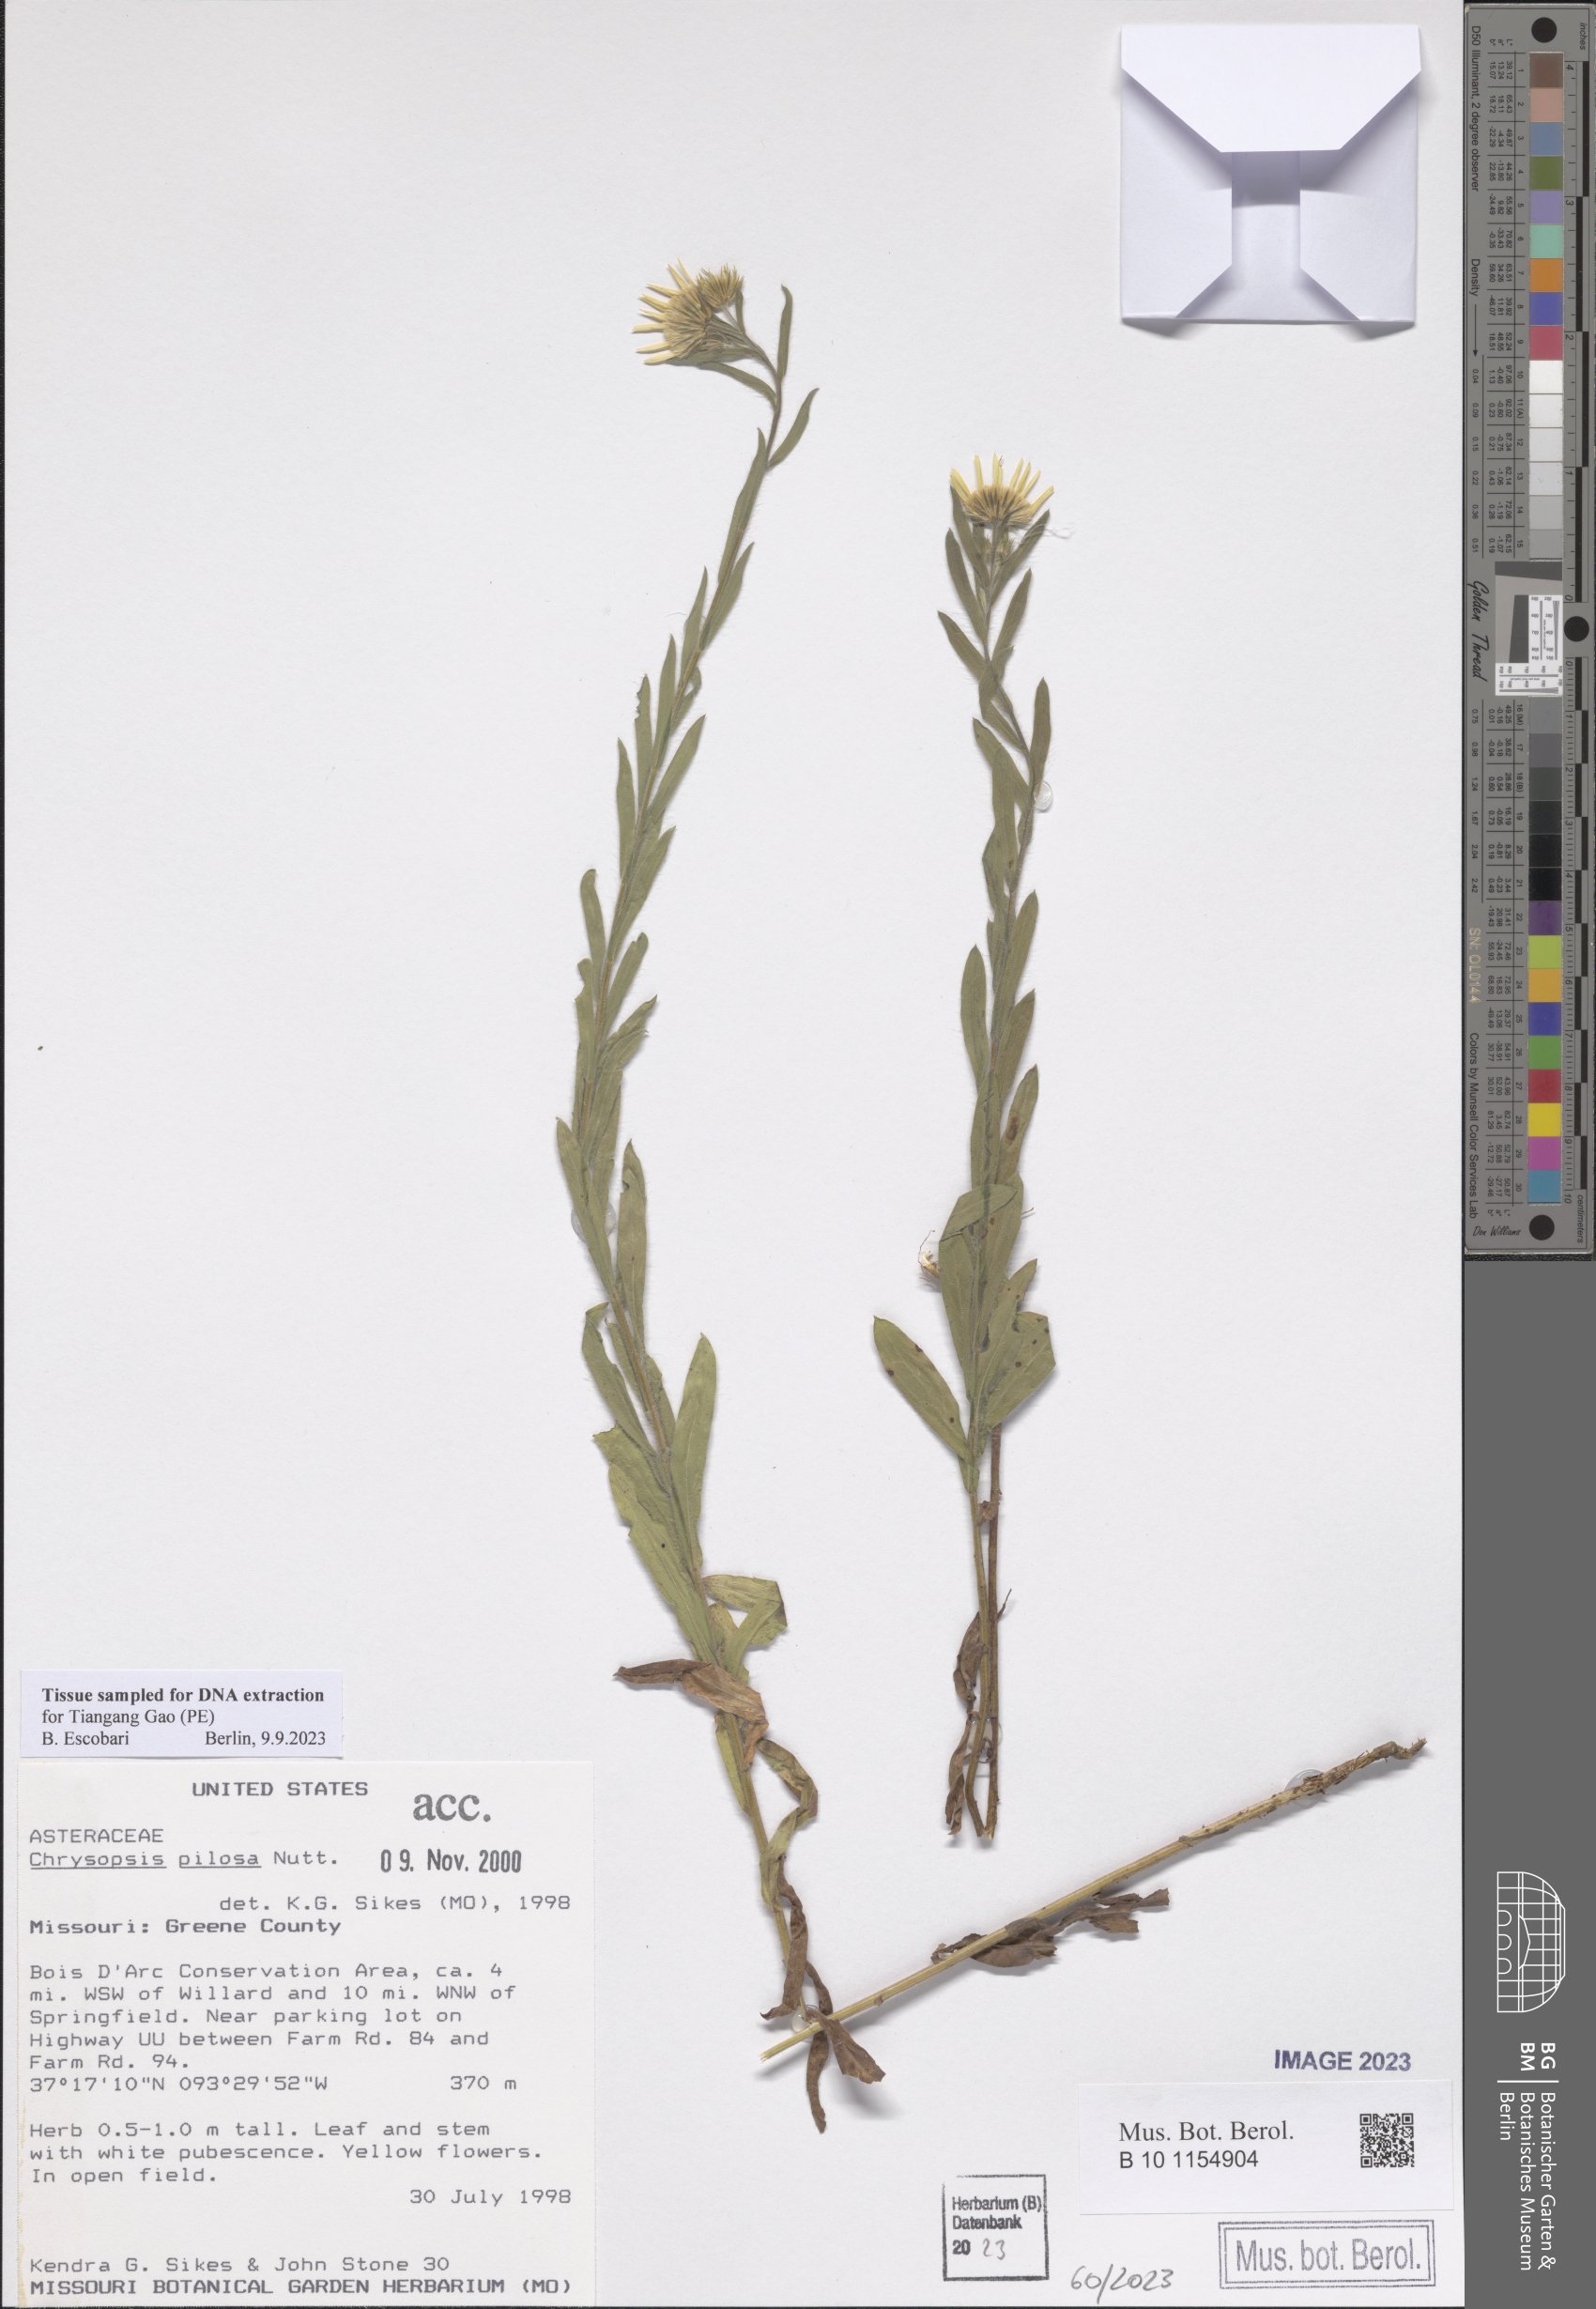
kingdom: Plantae
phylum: Tracheophyta
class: Magnoliopsida
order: Asterales
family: Asteraceae
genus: Bradburia
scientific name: Bradburia pilosa
